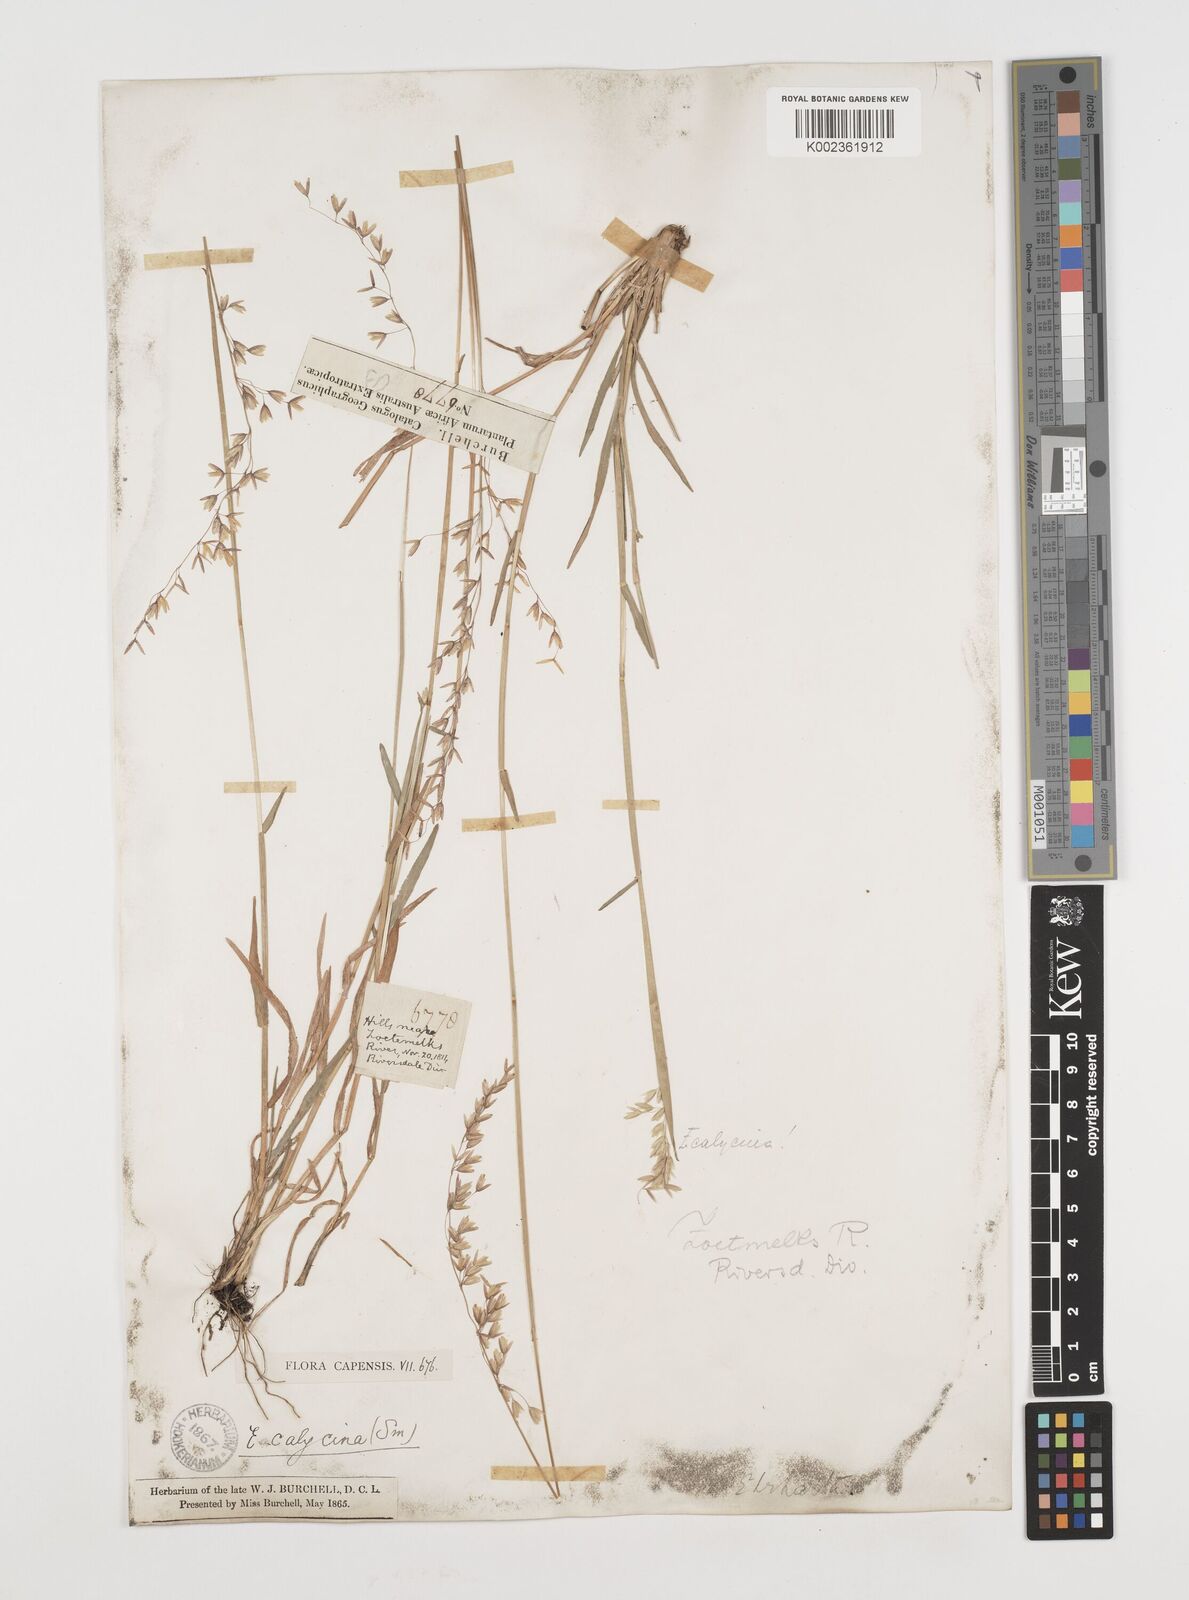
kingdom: Plantae
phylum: Tracheophyta
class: Liliopsida
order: Poales
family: Poaceae
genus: Ehrharta
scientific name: Ehrharta calycina
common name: Perennial veldtgrass
